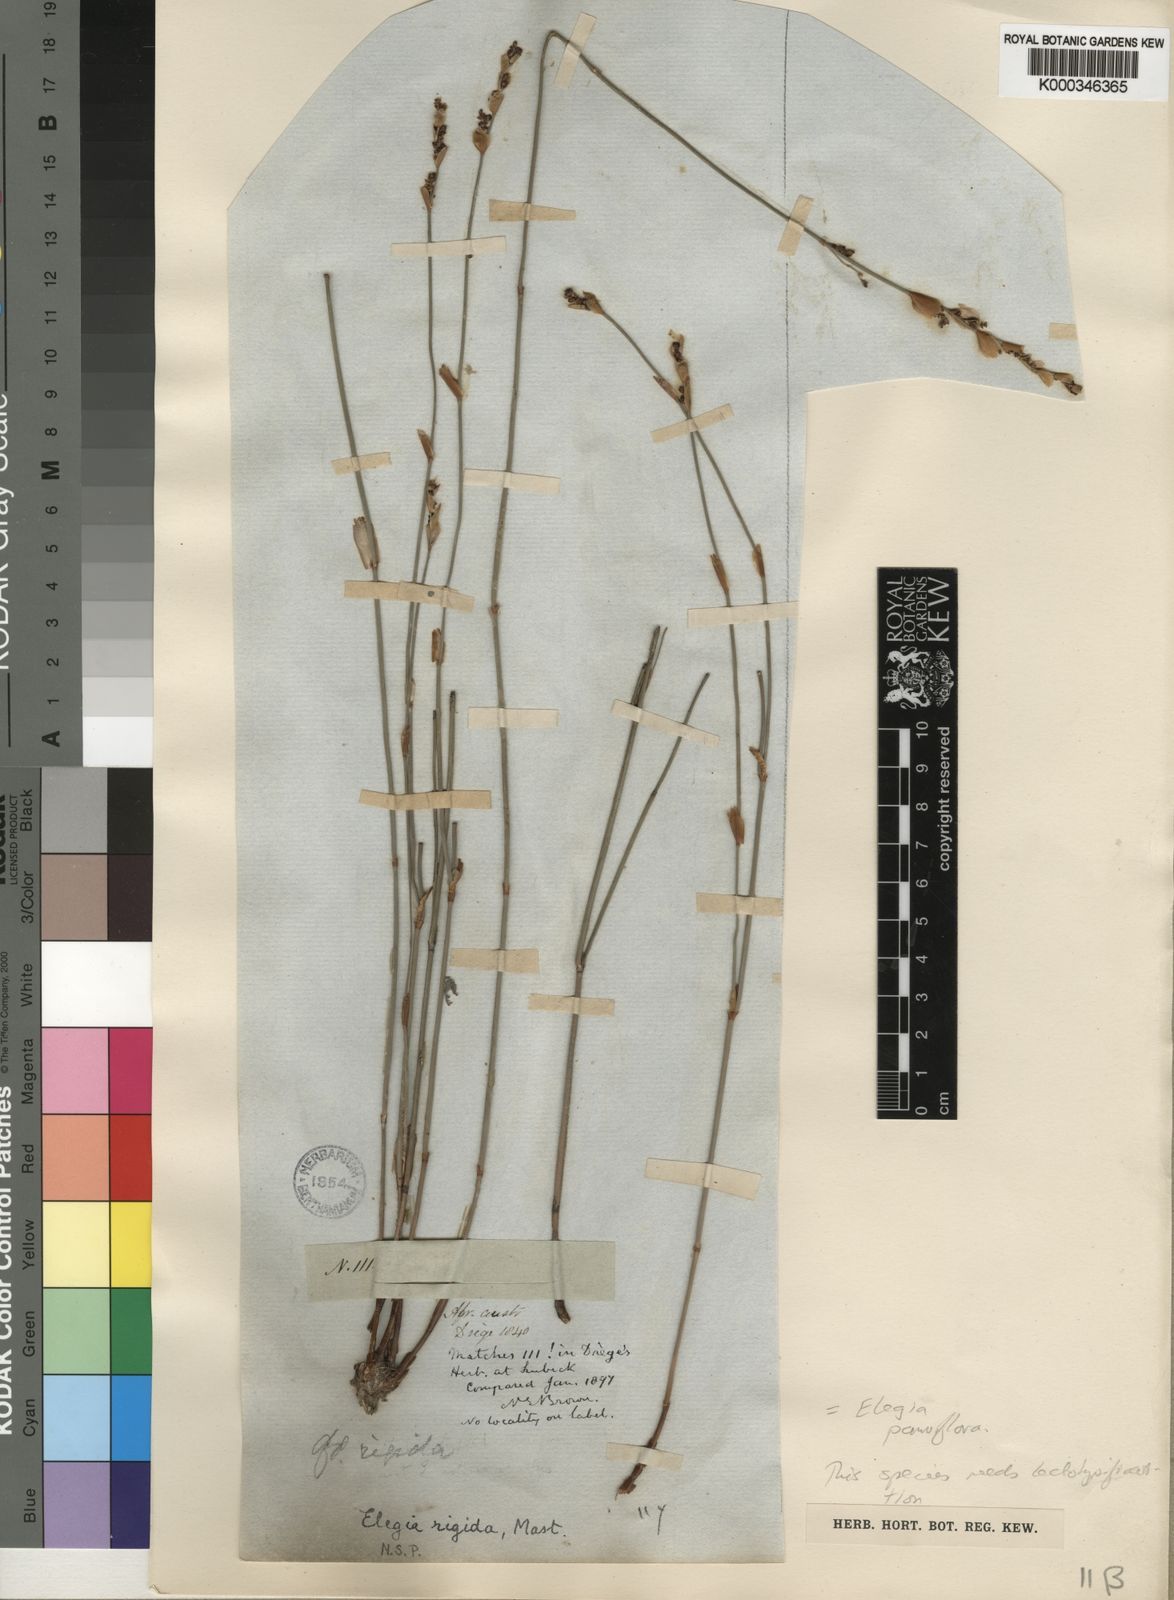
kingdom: Plantae
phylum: Tracheophyta
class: Liliopsida
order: Poales
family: Restionaceae
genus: Elegia
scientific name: Elegia squamosa
